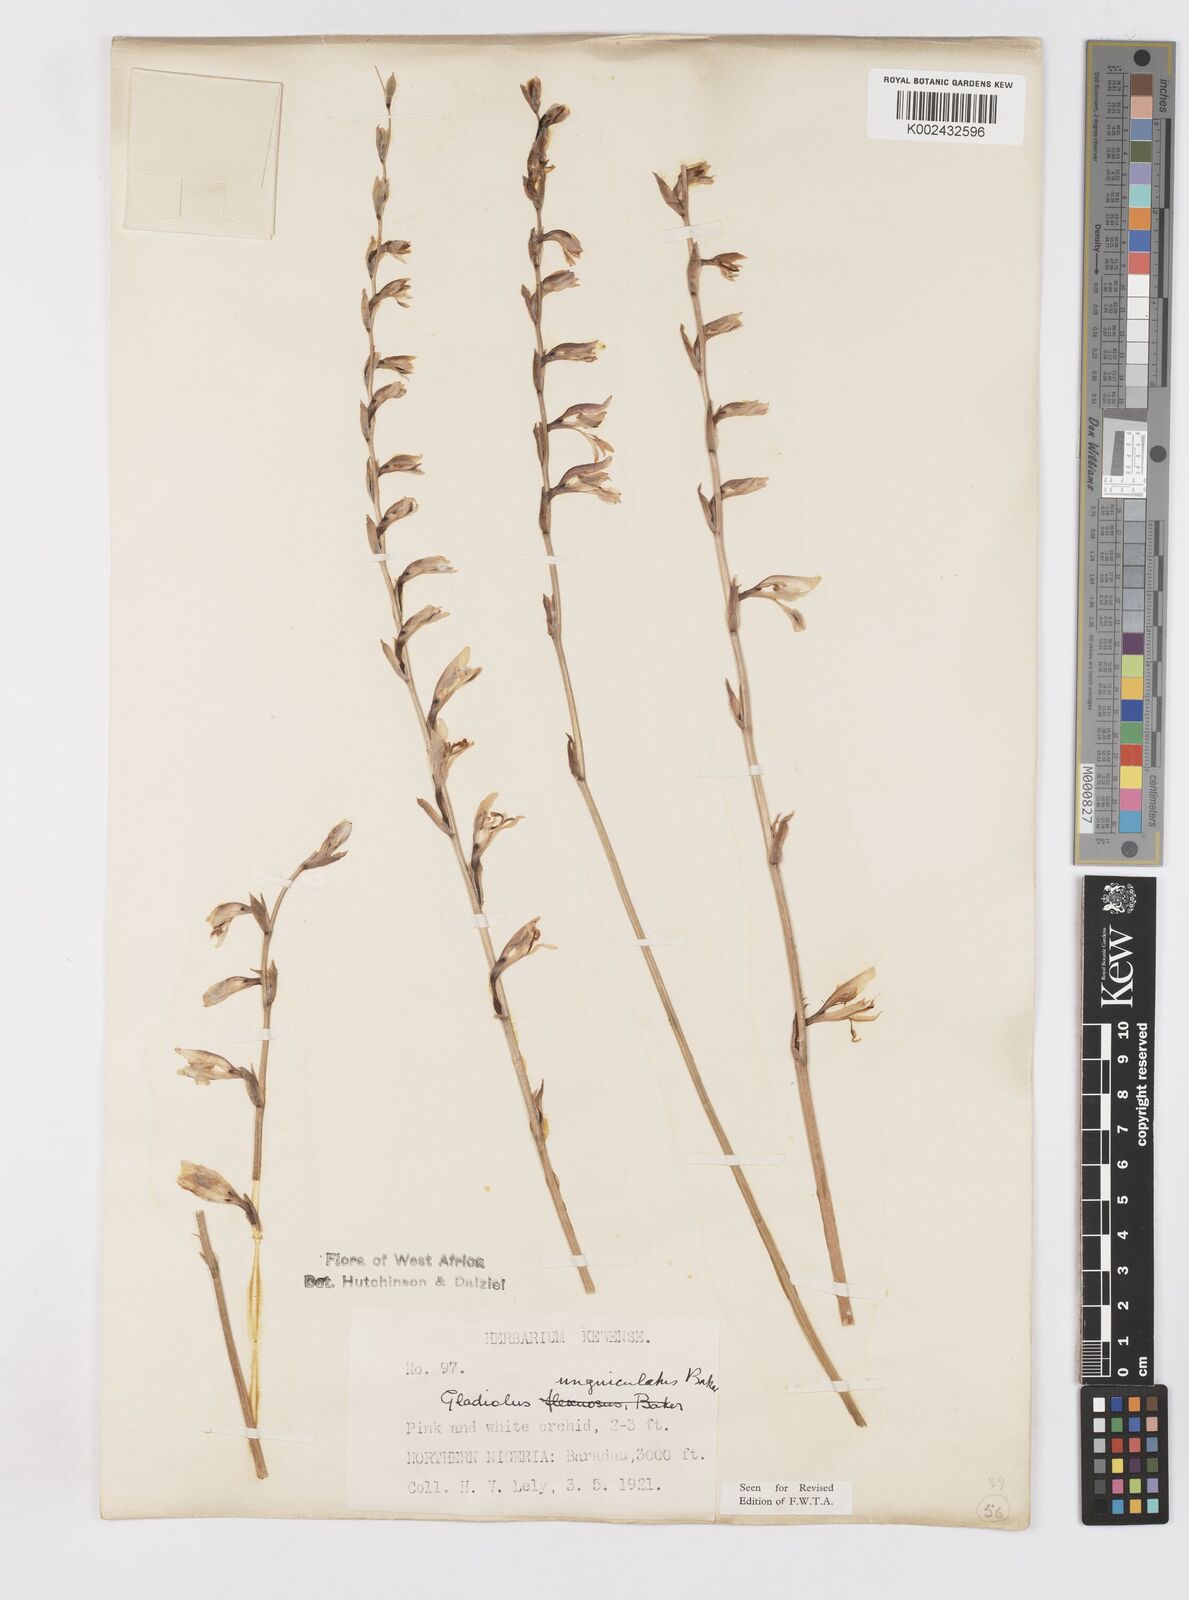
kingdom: Plantae
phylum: Tracheophyta
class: Liliopsida
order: Asparagales
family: Iridaceae
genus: Gladiolus
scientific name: Gladiolus unguiculatus
